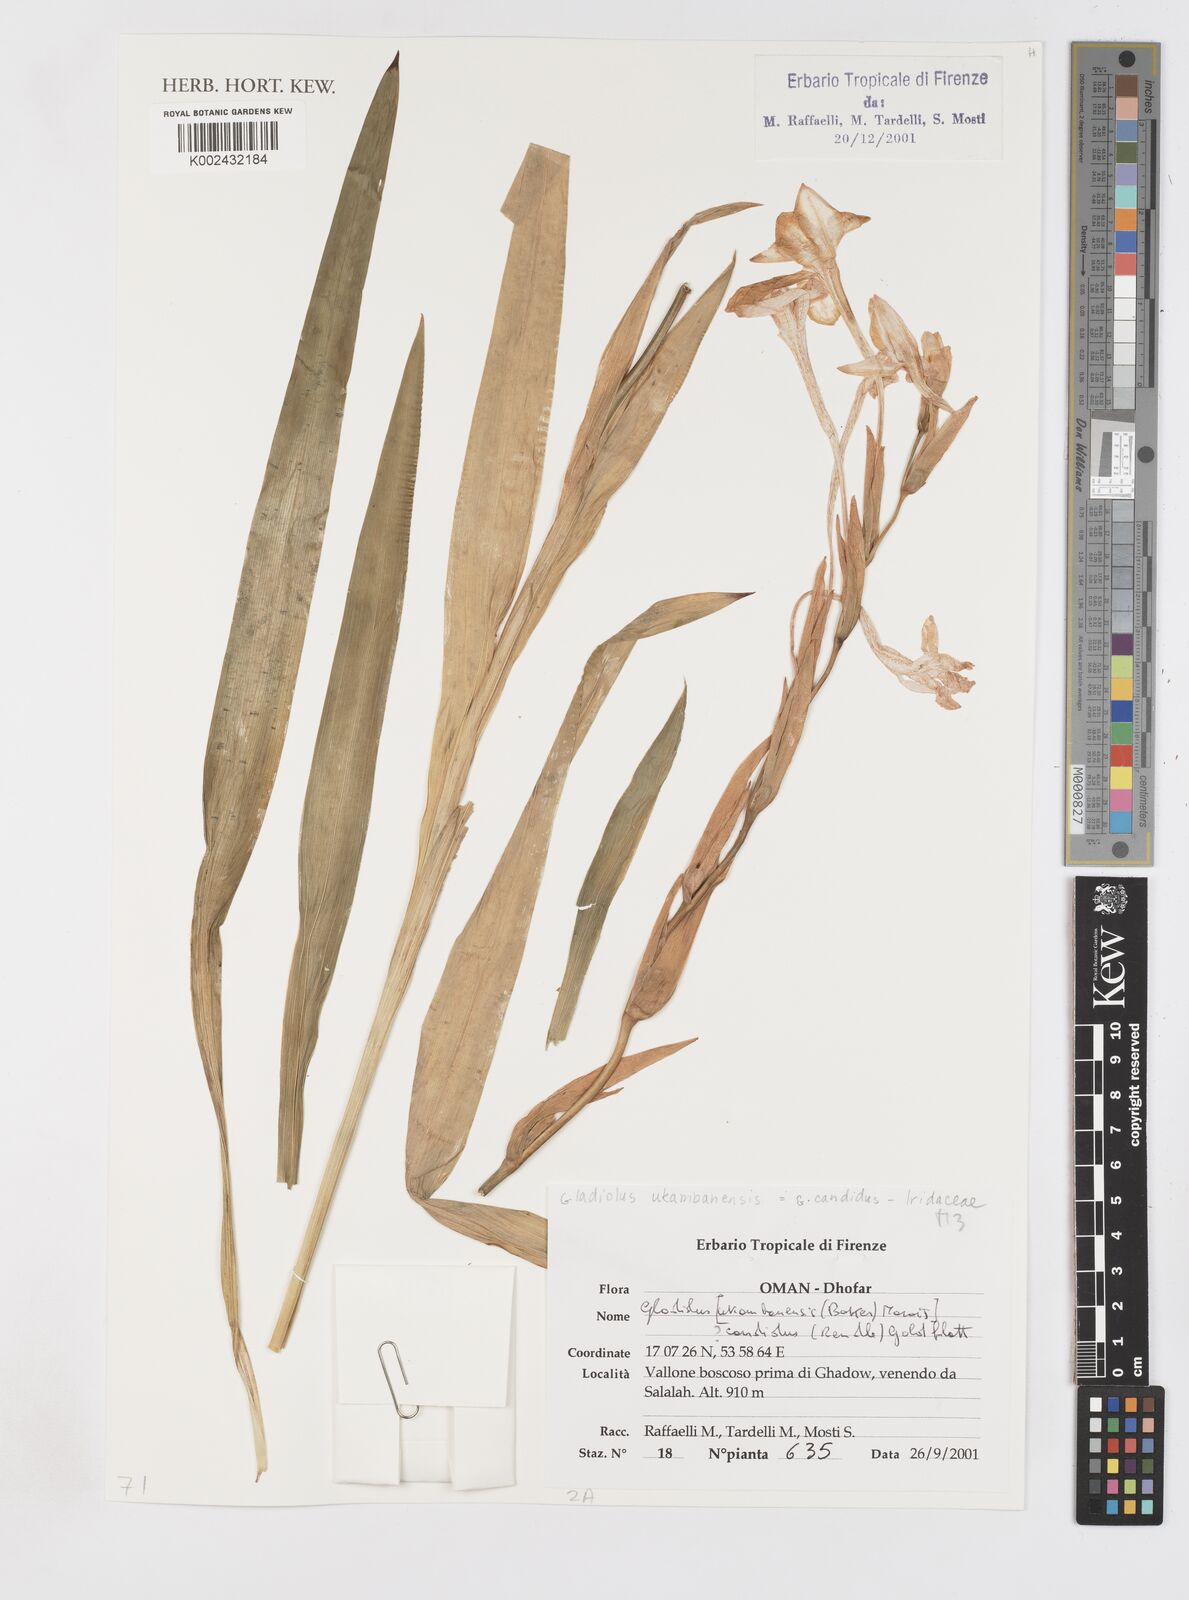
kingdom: Plantae
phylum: Tracheophyta
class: Liliopsida
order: Asparagales
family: Iridaceae
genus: Gladiolus
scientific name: Gladiolus candidus
